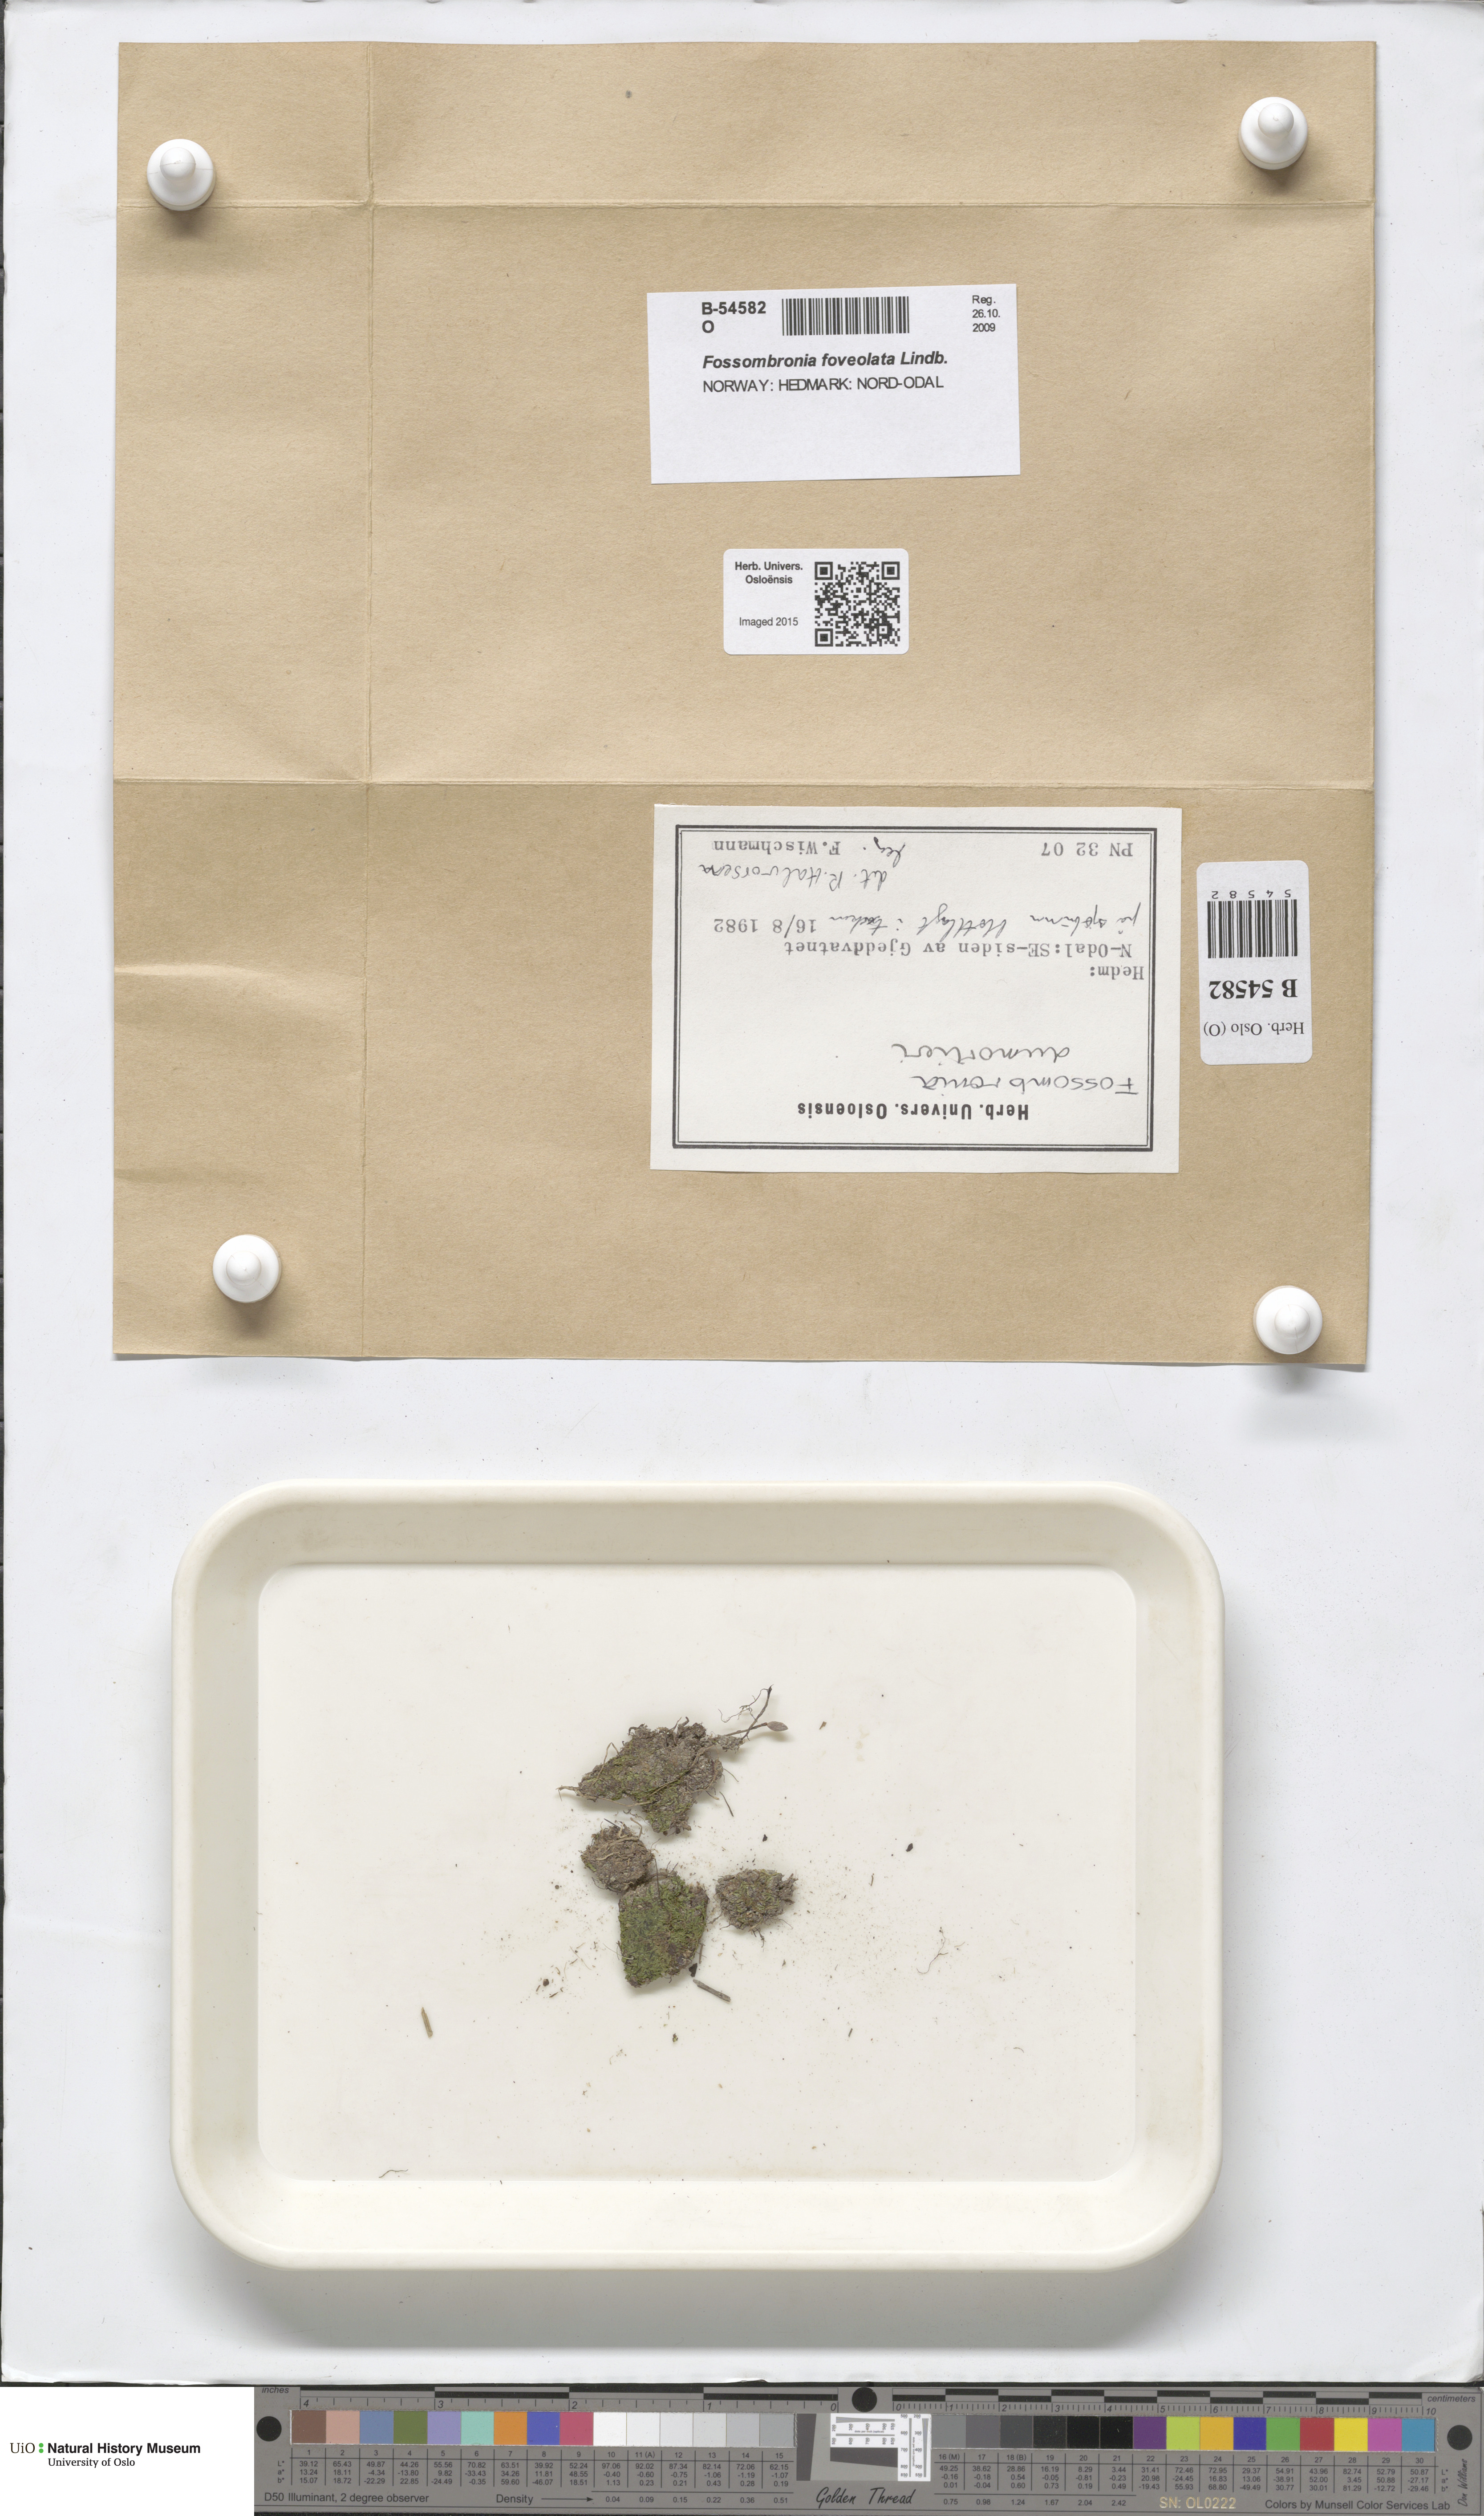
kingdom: Plantae
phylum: Marchantiophyta
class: Jungermanniopsida
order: Fossombroniales
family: Fossombroniaceae
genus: Fossombronia
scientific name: Fossombronia foveolata
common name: Pitted frillwort
